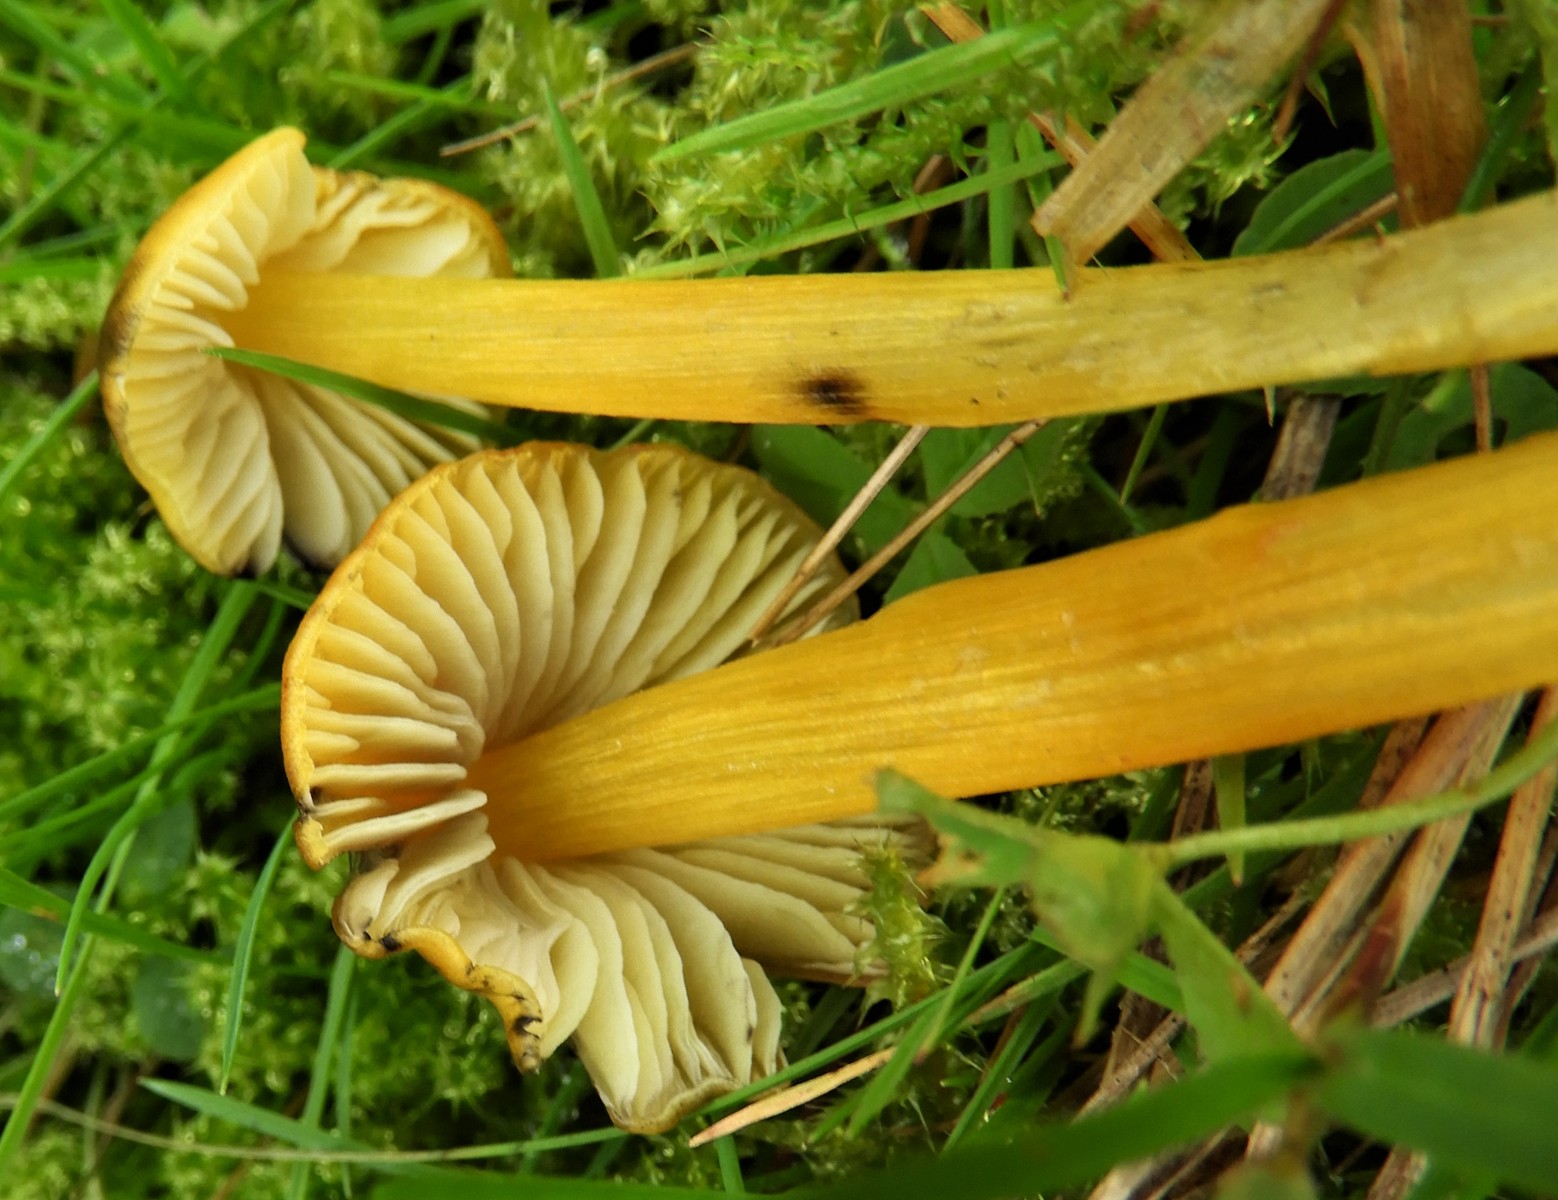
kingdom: Fungi
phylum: Basidiomycota
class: Agaricomycetes
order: Agaricales
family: Hygrophoraceae
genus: Hygrocybe
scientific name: Hygrocybe conica
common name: kegle-vokshat
